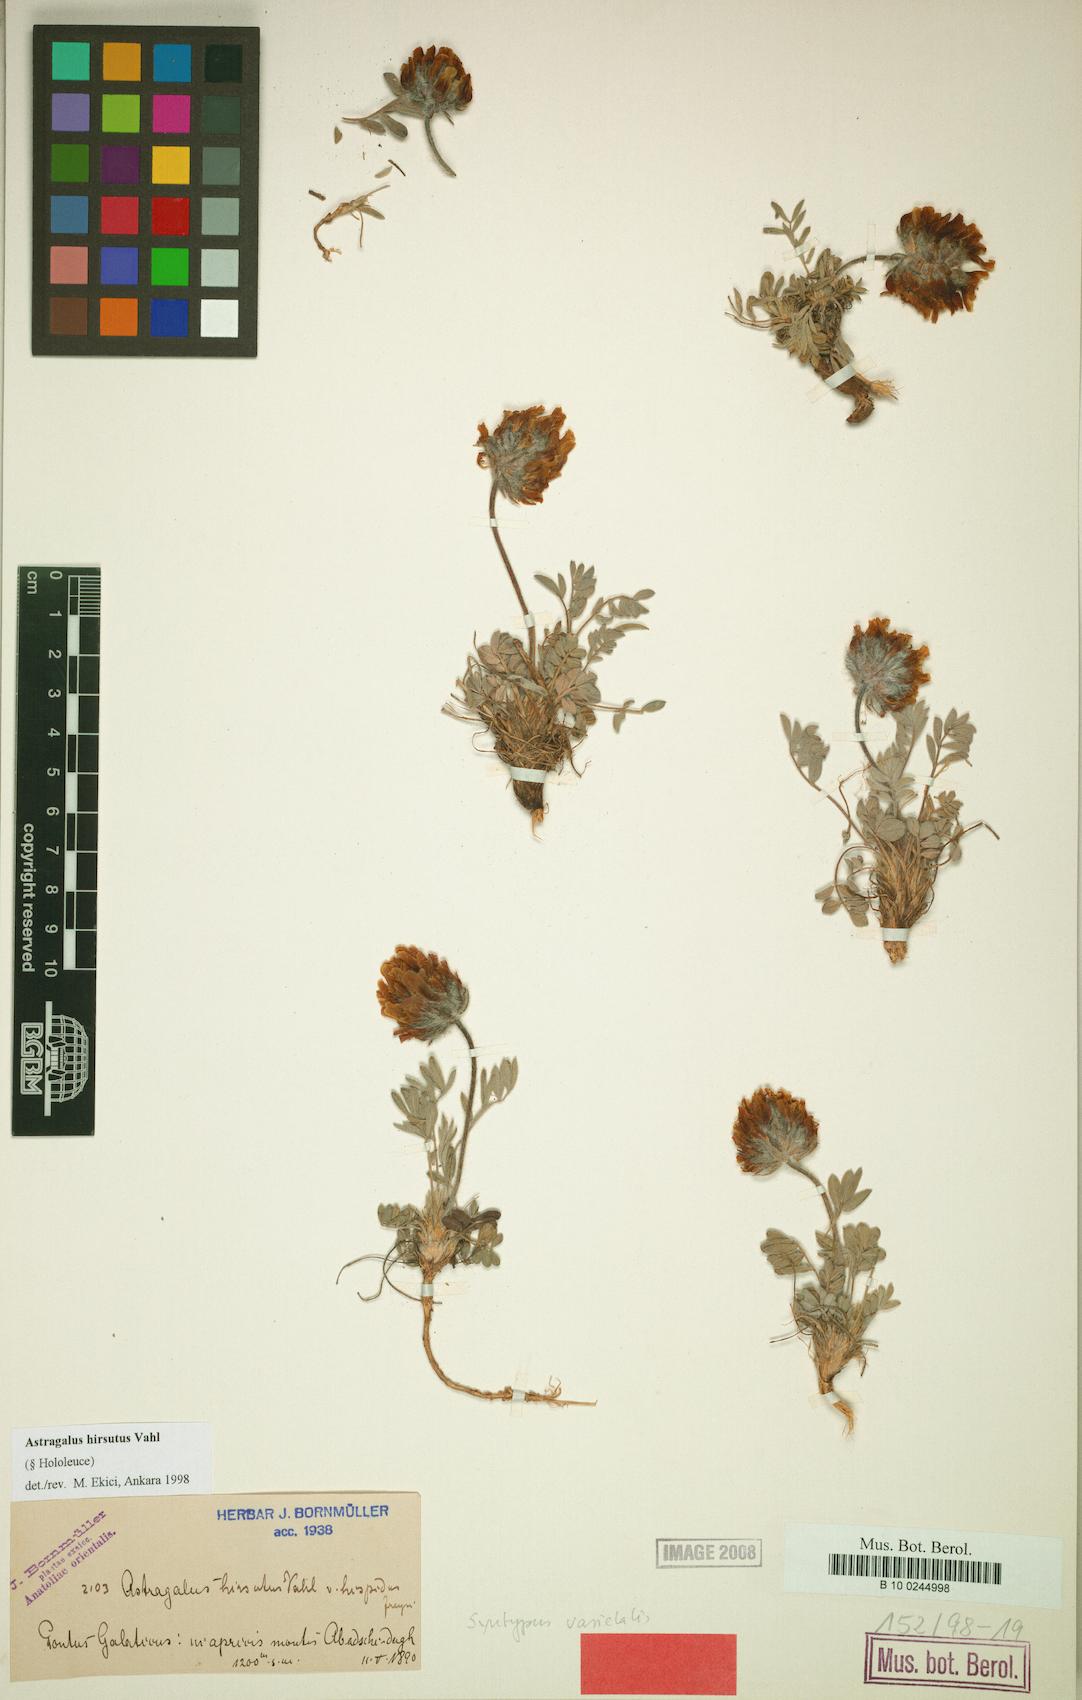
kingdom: Plantae
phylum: Tracheophyta
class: Magnoliopsida
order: Fabales
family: Fabaceae
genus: Astragalus
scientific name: Astragalus hirsutus
